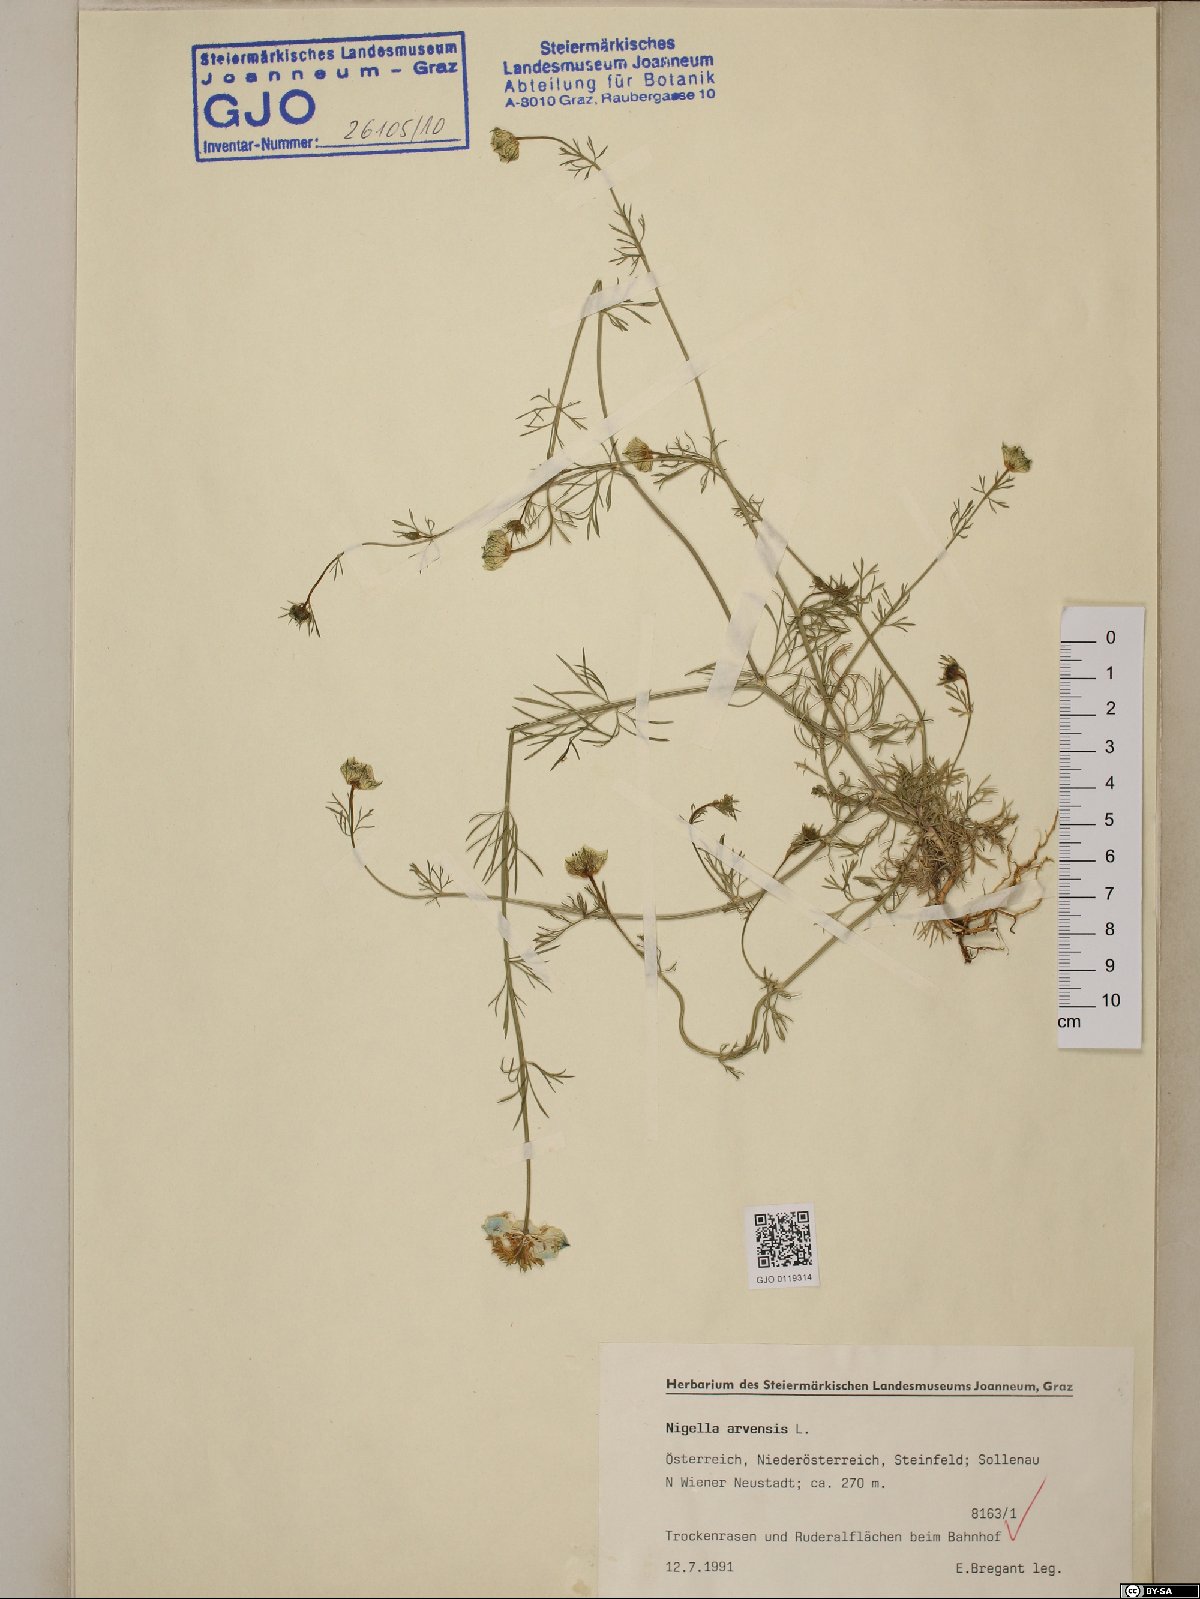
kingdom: Plantae
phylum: Tracheophyta
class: Magnoliopsida
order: Ranunculales
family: Ranunculaceae
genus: Nigella
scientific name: Nigella arvensis
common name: Wild fennel-flower
